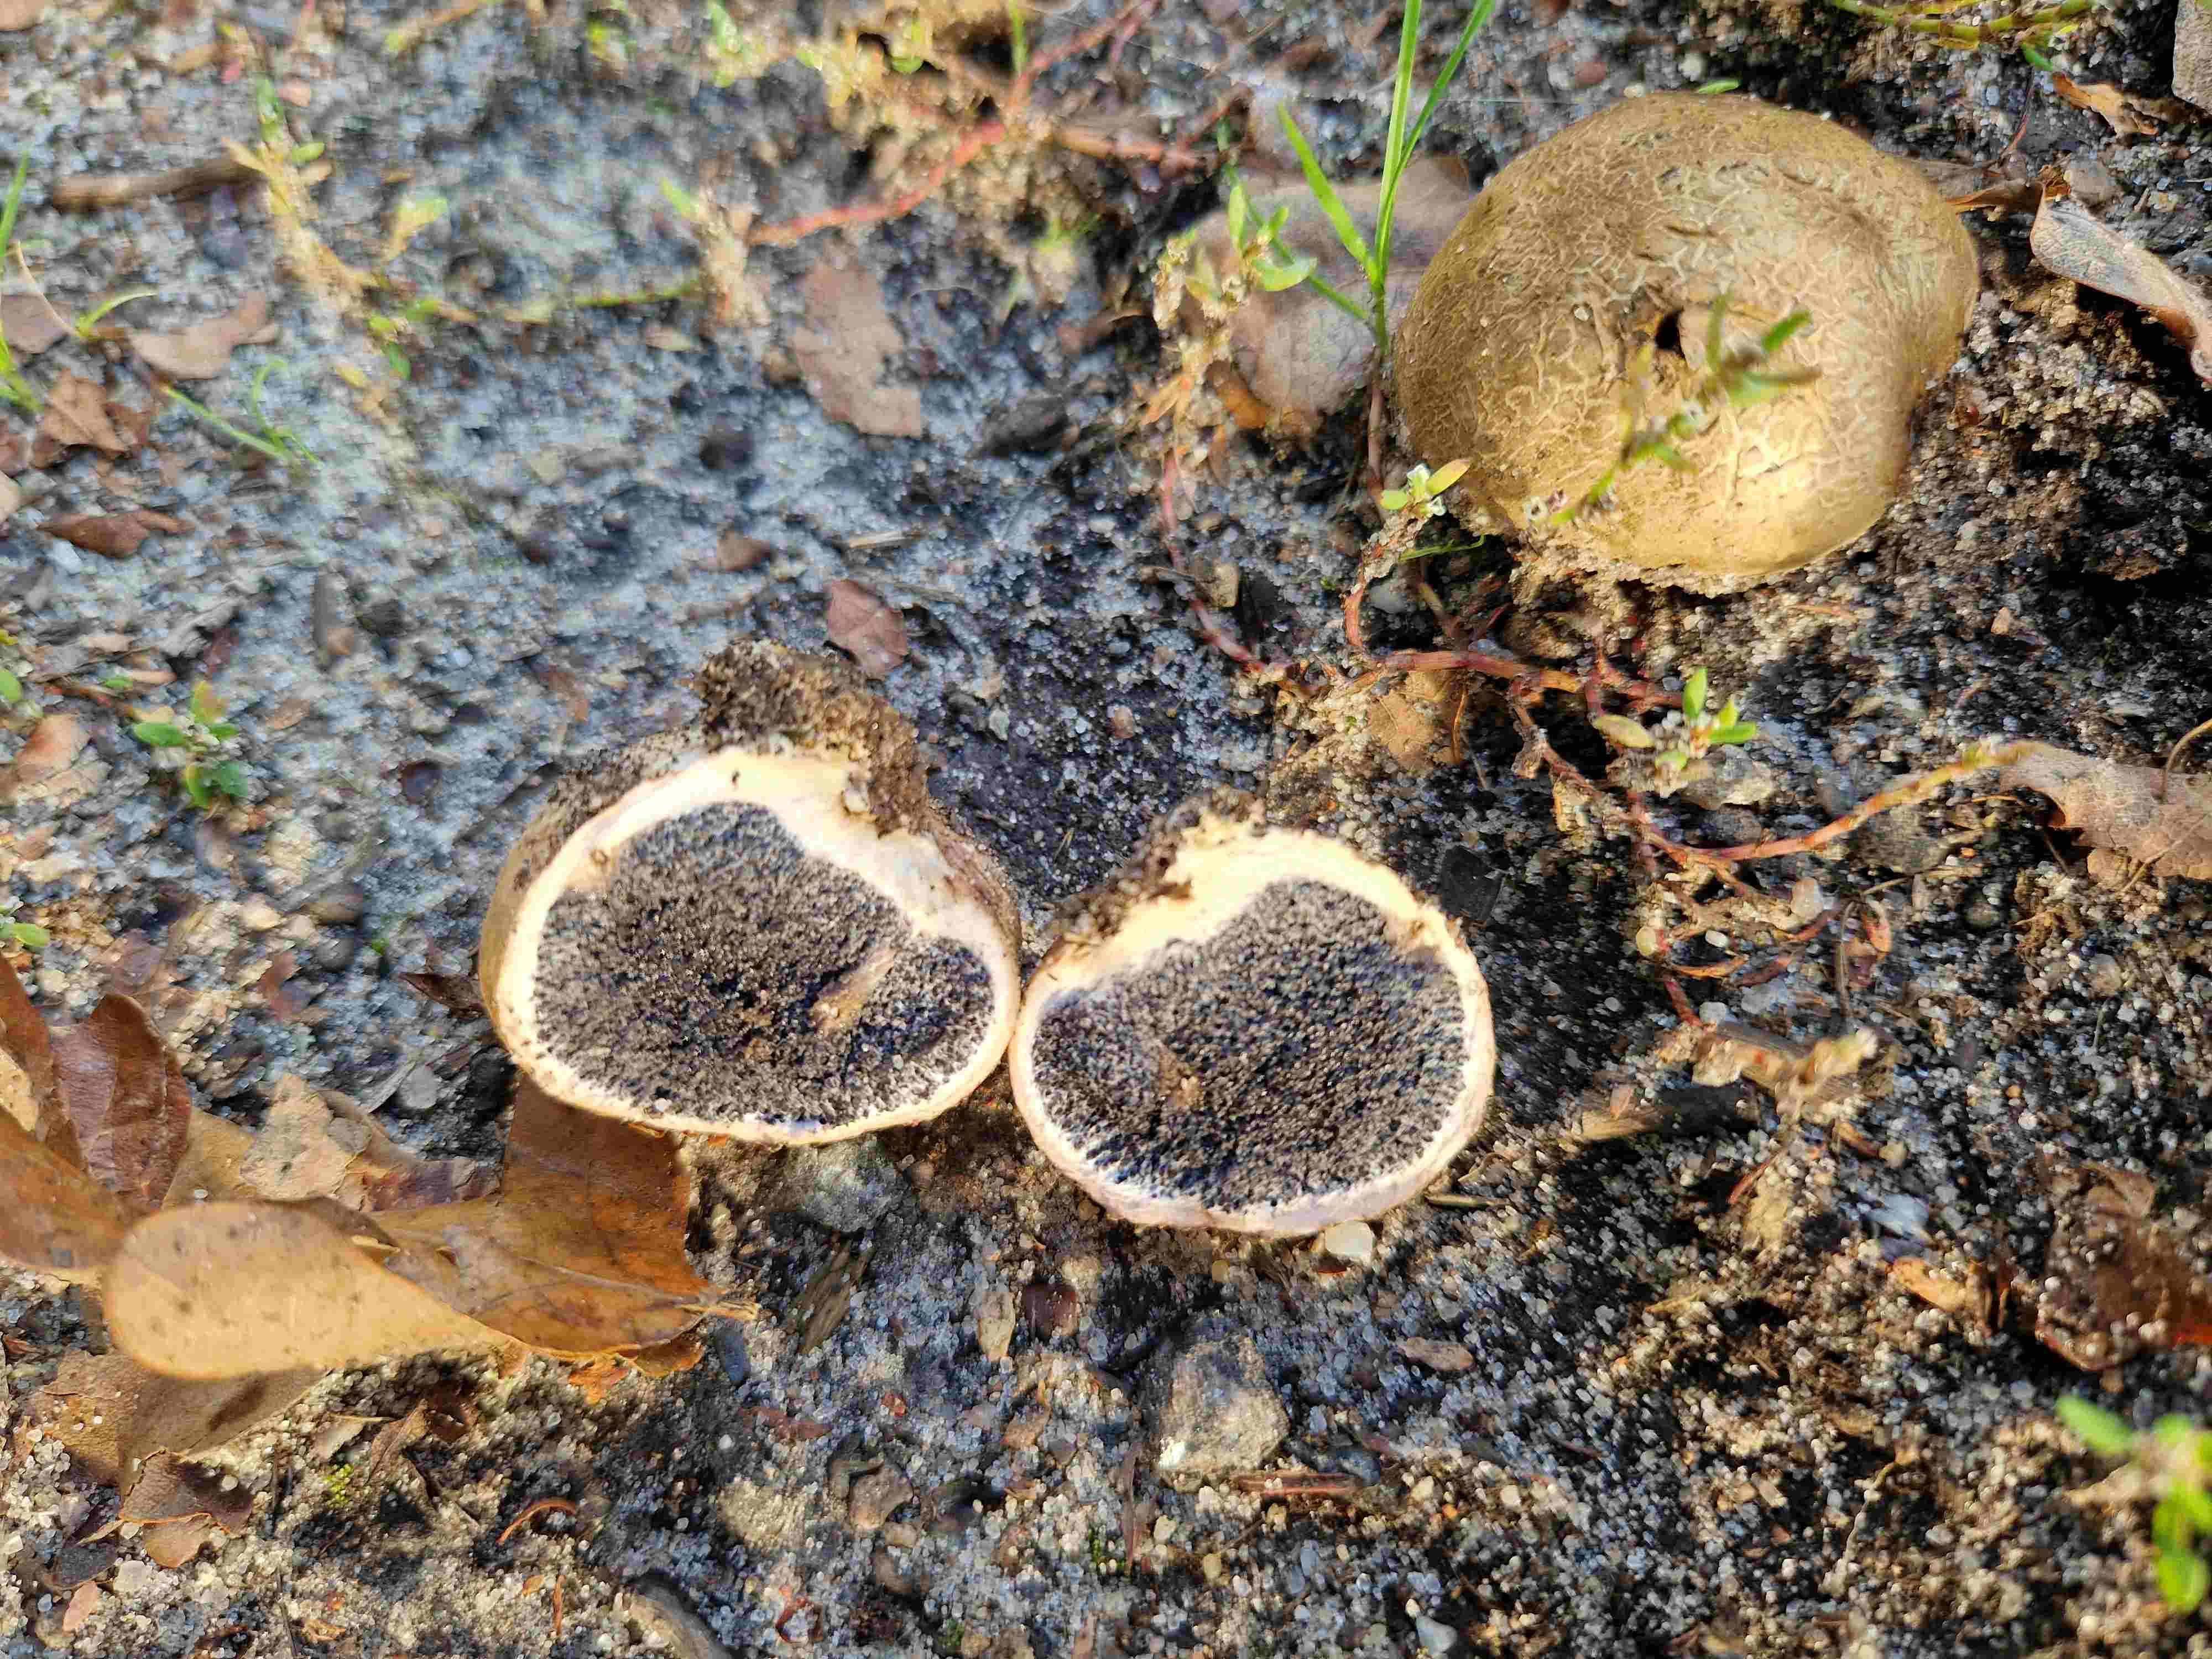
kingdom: Fungi
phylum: Basidiomycota
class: Agaricomycetes
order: Boletales
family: Sclerodermataceae
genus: Scleroderma
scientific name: Scleroderma citrinum
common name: almindelig bruskbold
